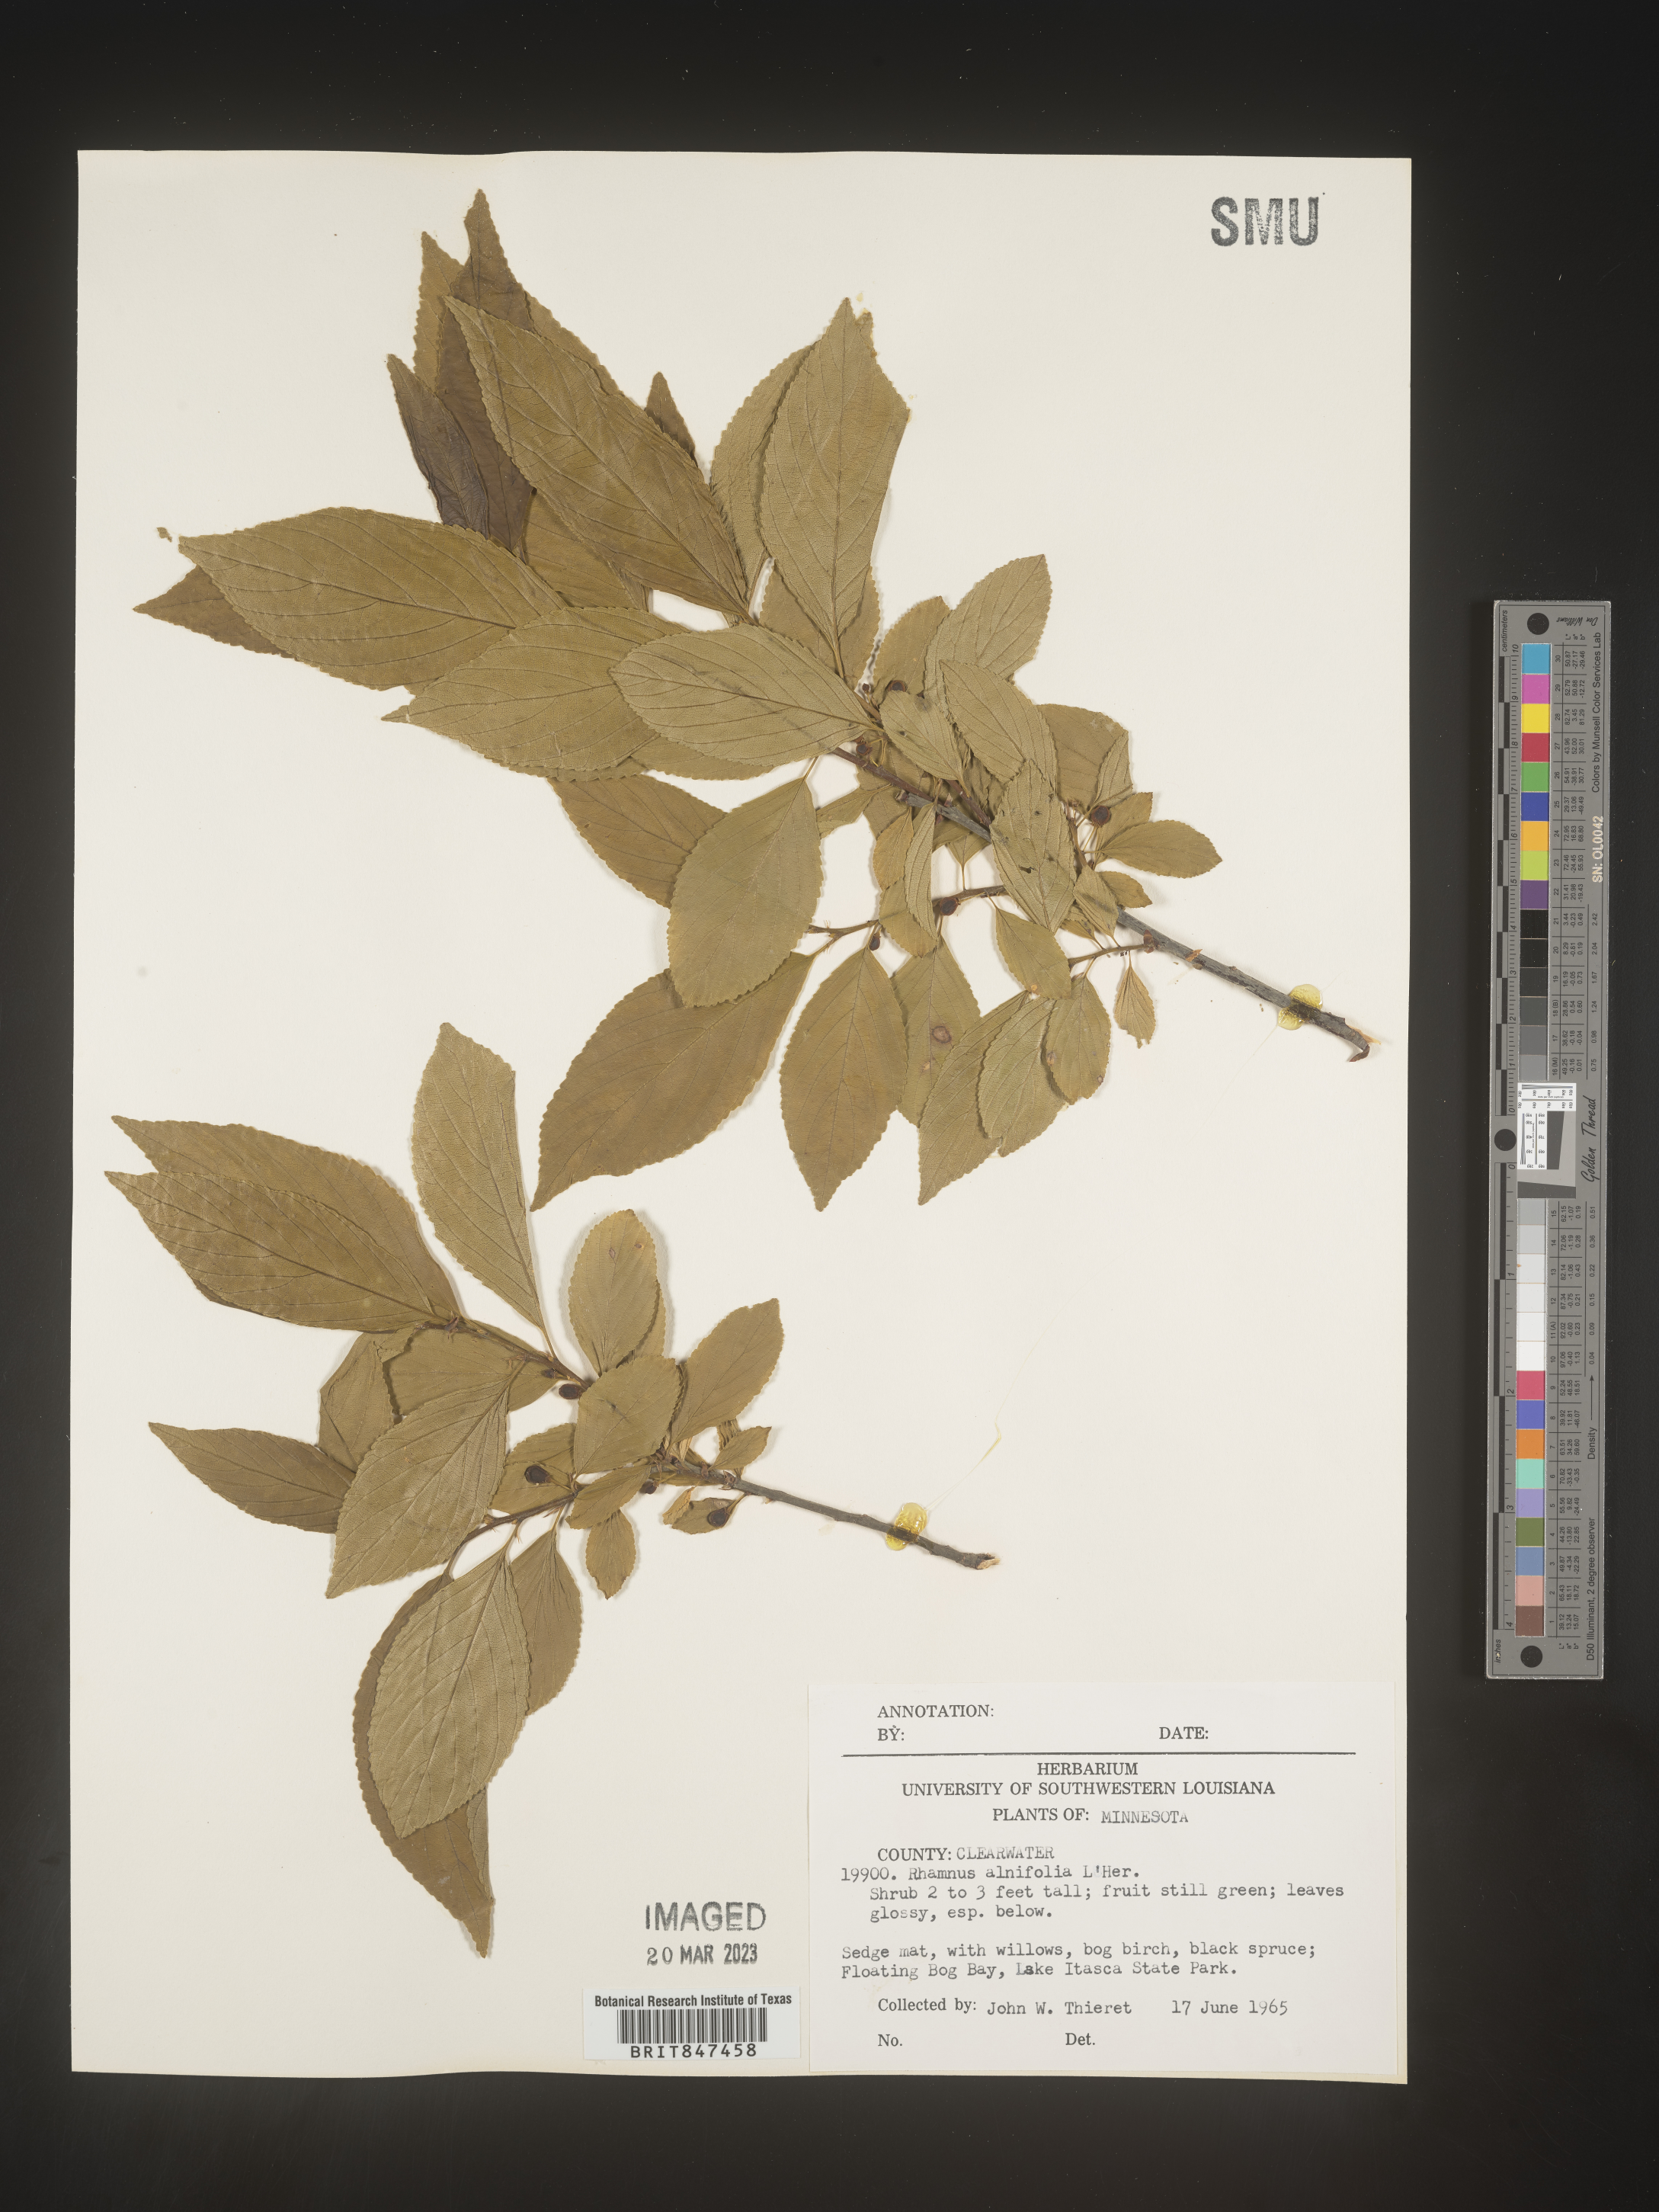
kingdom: Plantae
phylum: Tracheophyta
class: Magnoliopsida
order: Rosales
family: Rhamnaceae
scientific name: Rhamnaceae
